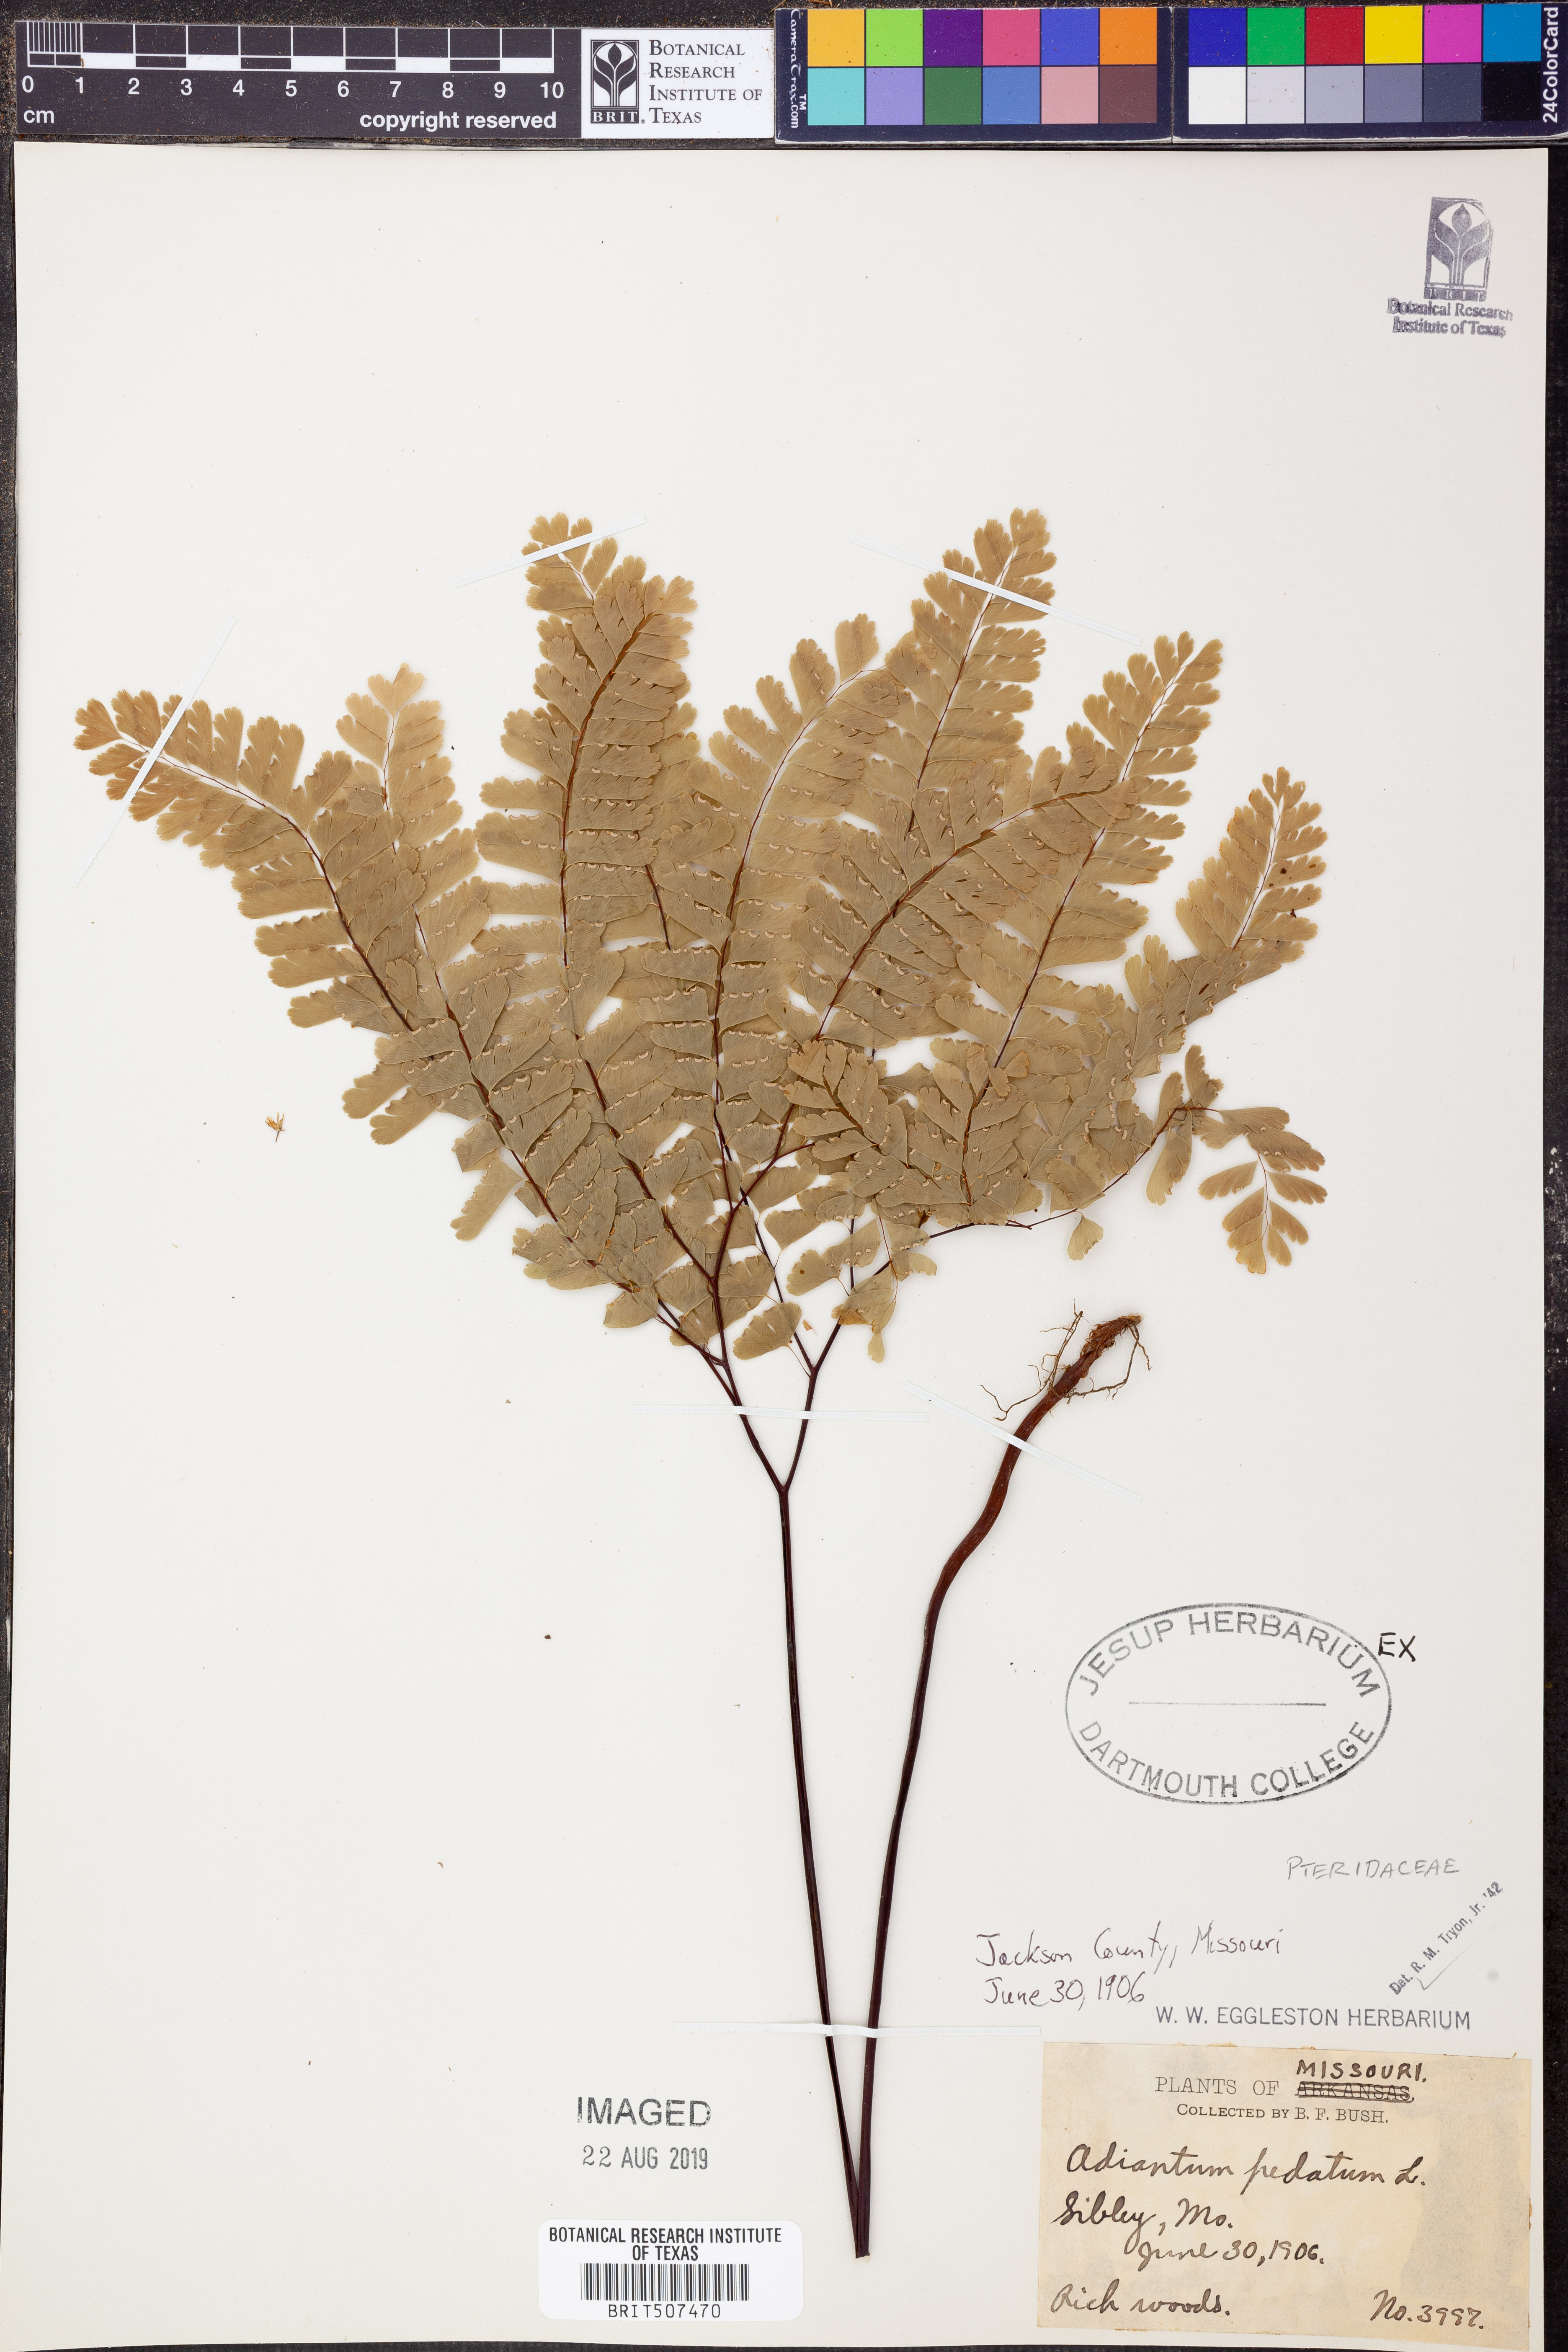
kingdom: Plantae
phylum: Tracheophyta
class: Polypodiopsida
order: Polypodiales
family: Pteridaceae
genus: Adiantum
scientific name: Adiantum pedatum
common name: Five-finger fern
